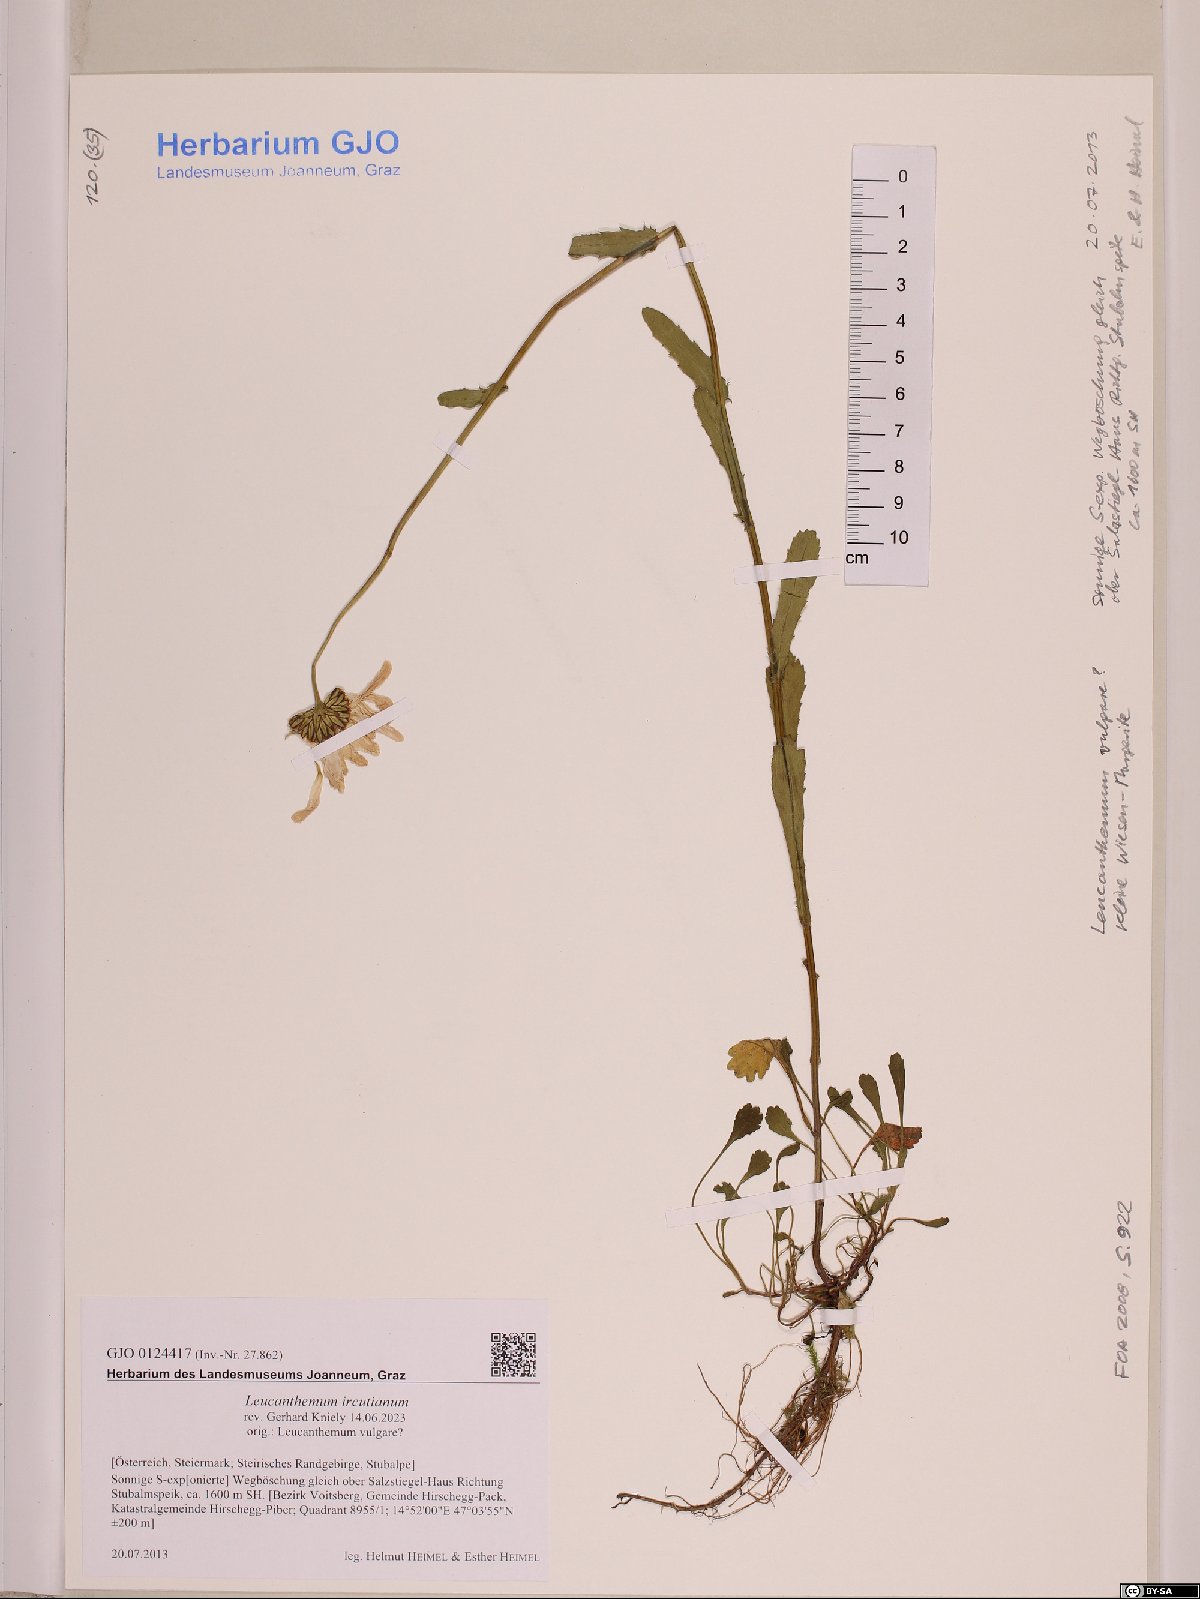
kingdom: Plantae
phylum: Tracheophyta
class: Magnoliopsida
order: Asterales
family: Asteraceae
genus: Leucanthemum
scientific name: Leucanthemum ircutianum
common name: Daisy
